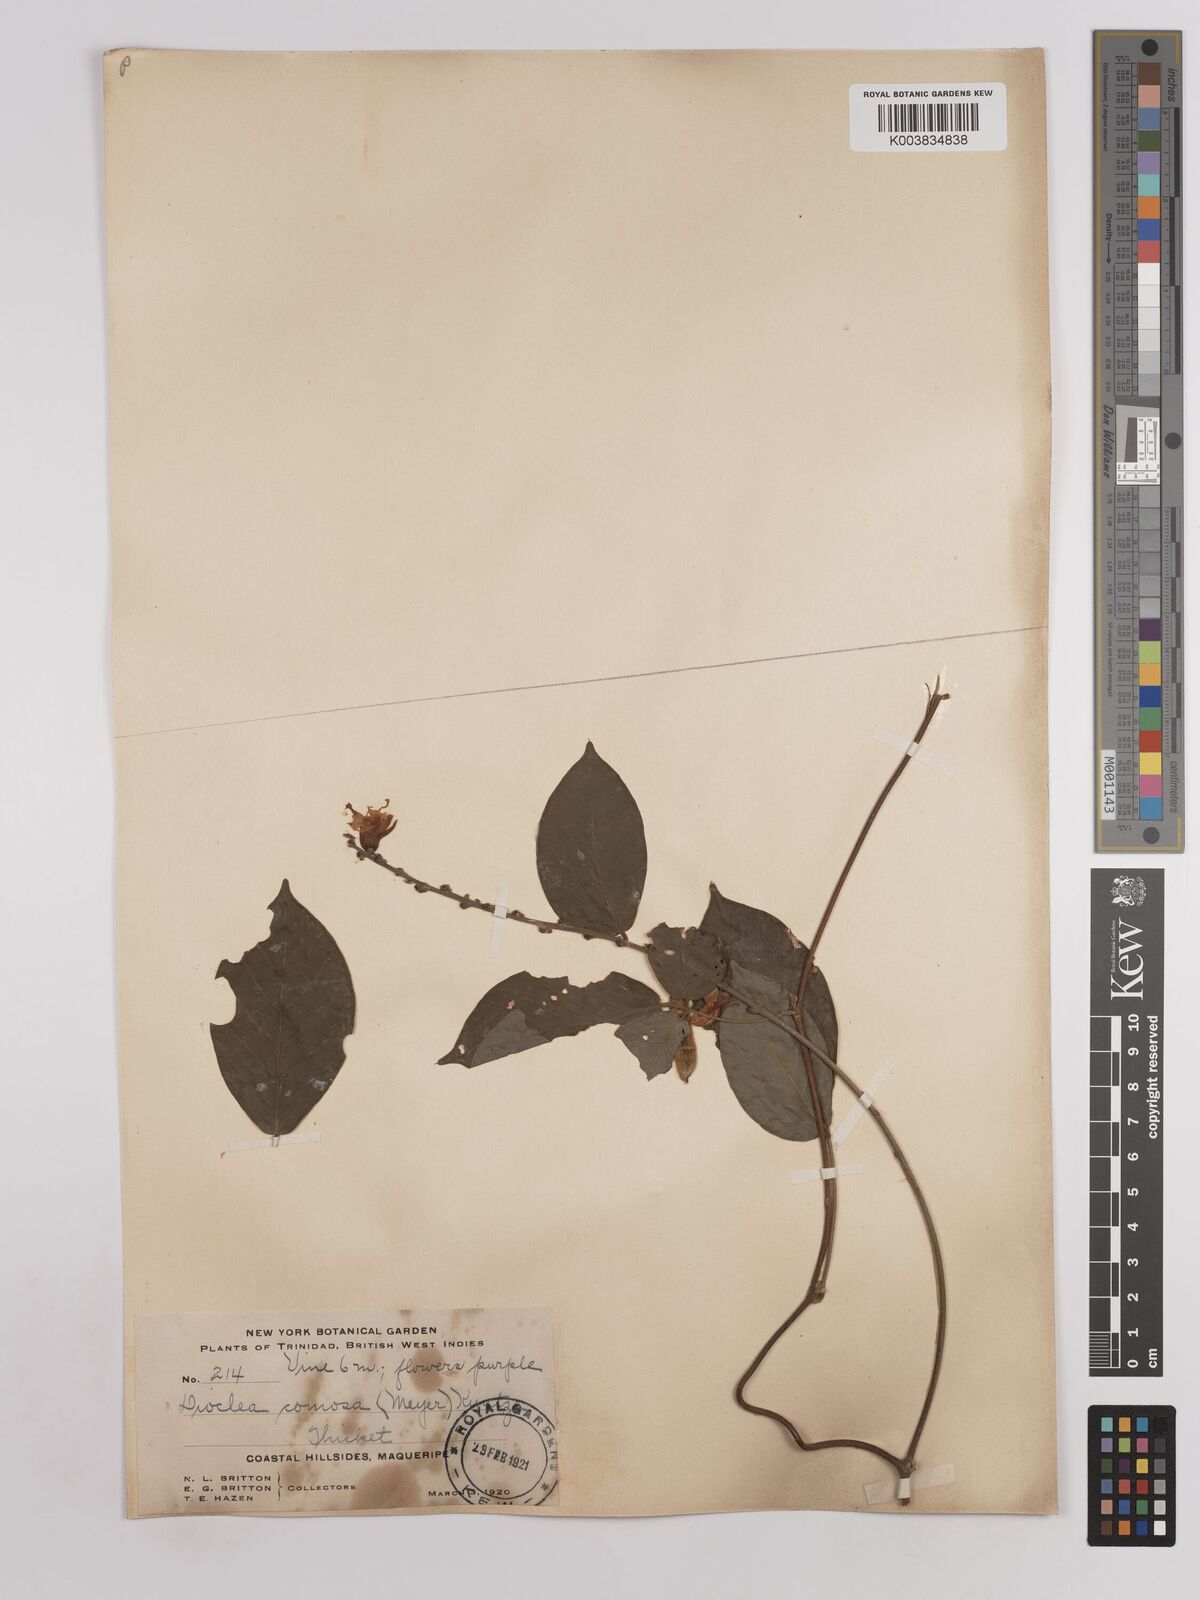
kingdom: Plantae
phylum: Tracheophyta
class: Magnoliopsida
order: Fabales
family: Fabaceae
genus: Dioclea
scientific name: Dioclea guianensis
